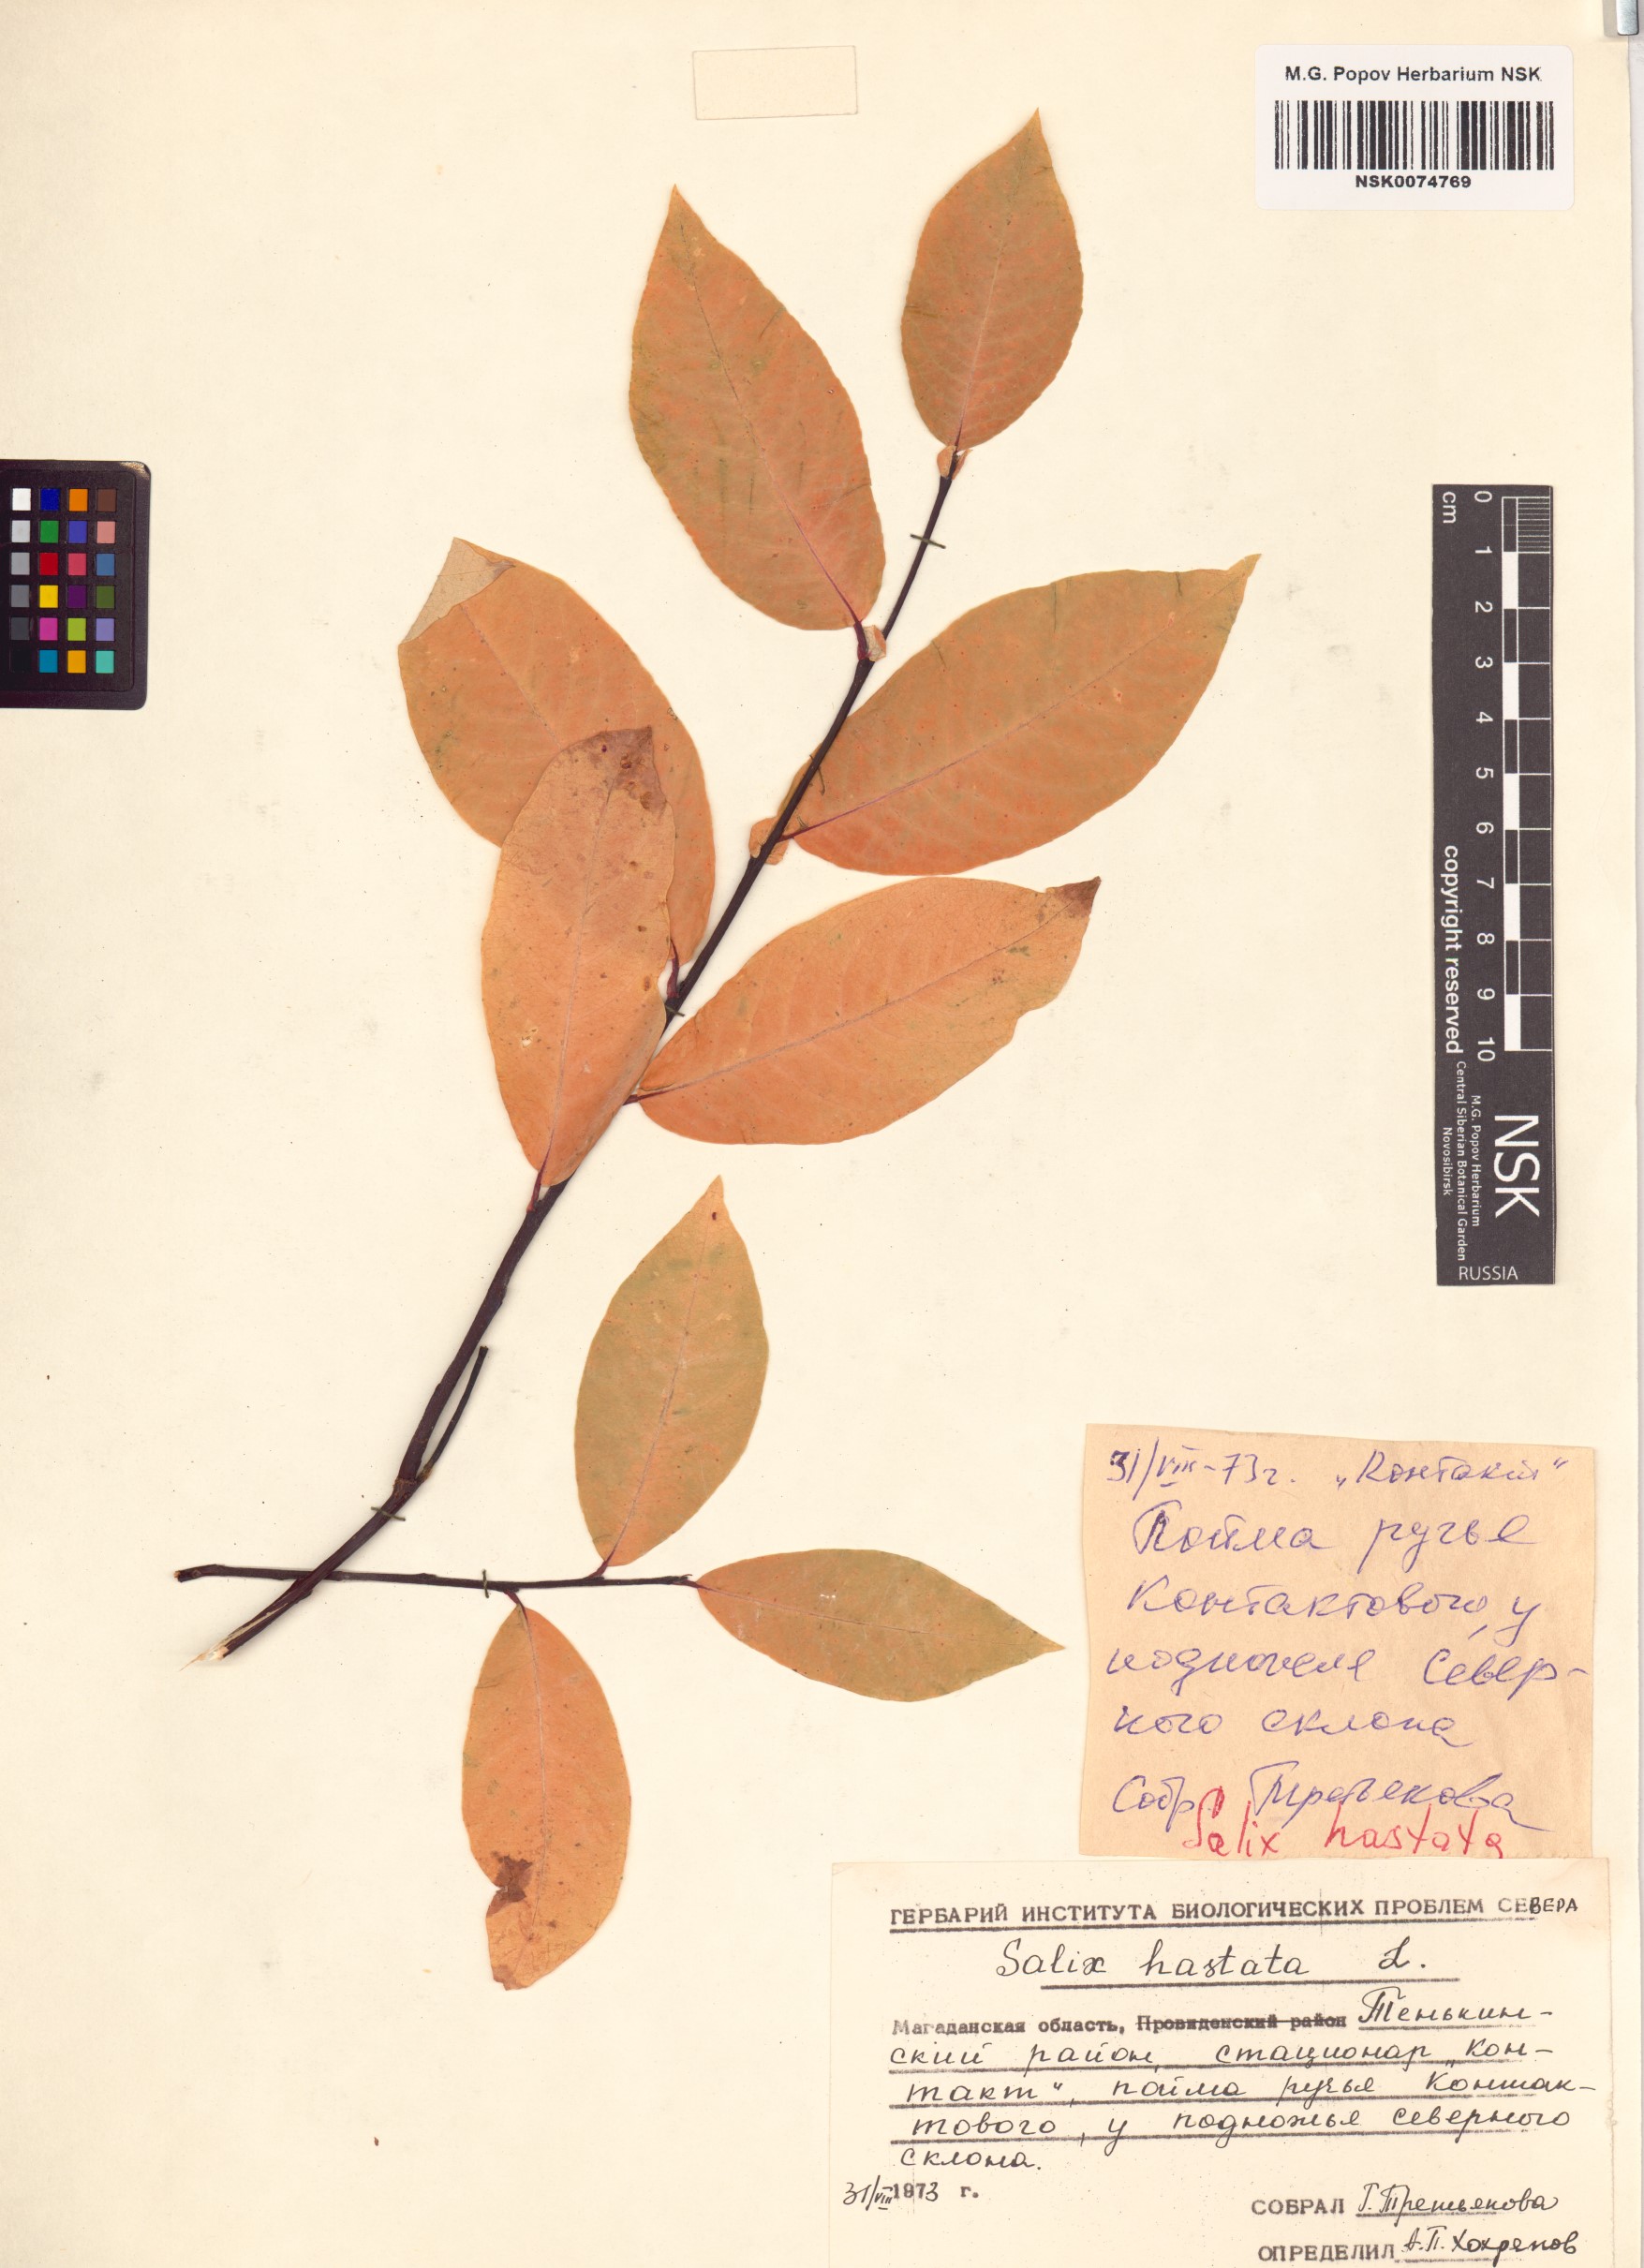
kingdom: Plantae
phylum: Tracheophyta
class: Magnoliopsida
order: Malpighiales
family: Salicaceae
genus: Salix
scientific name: Salix hastata
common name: Halberd willow
